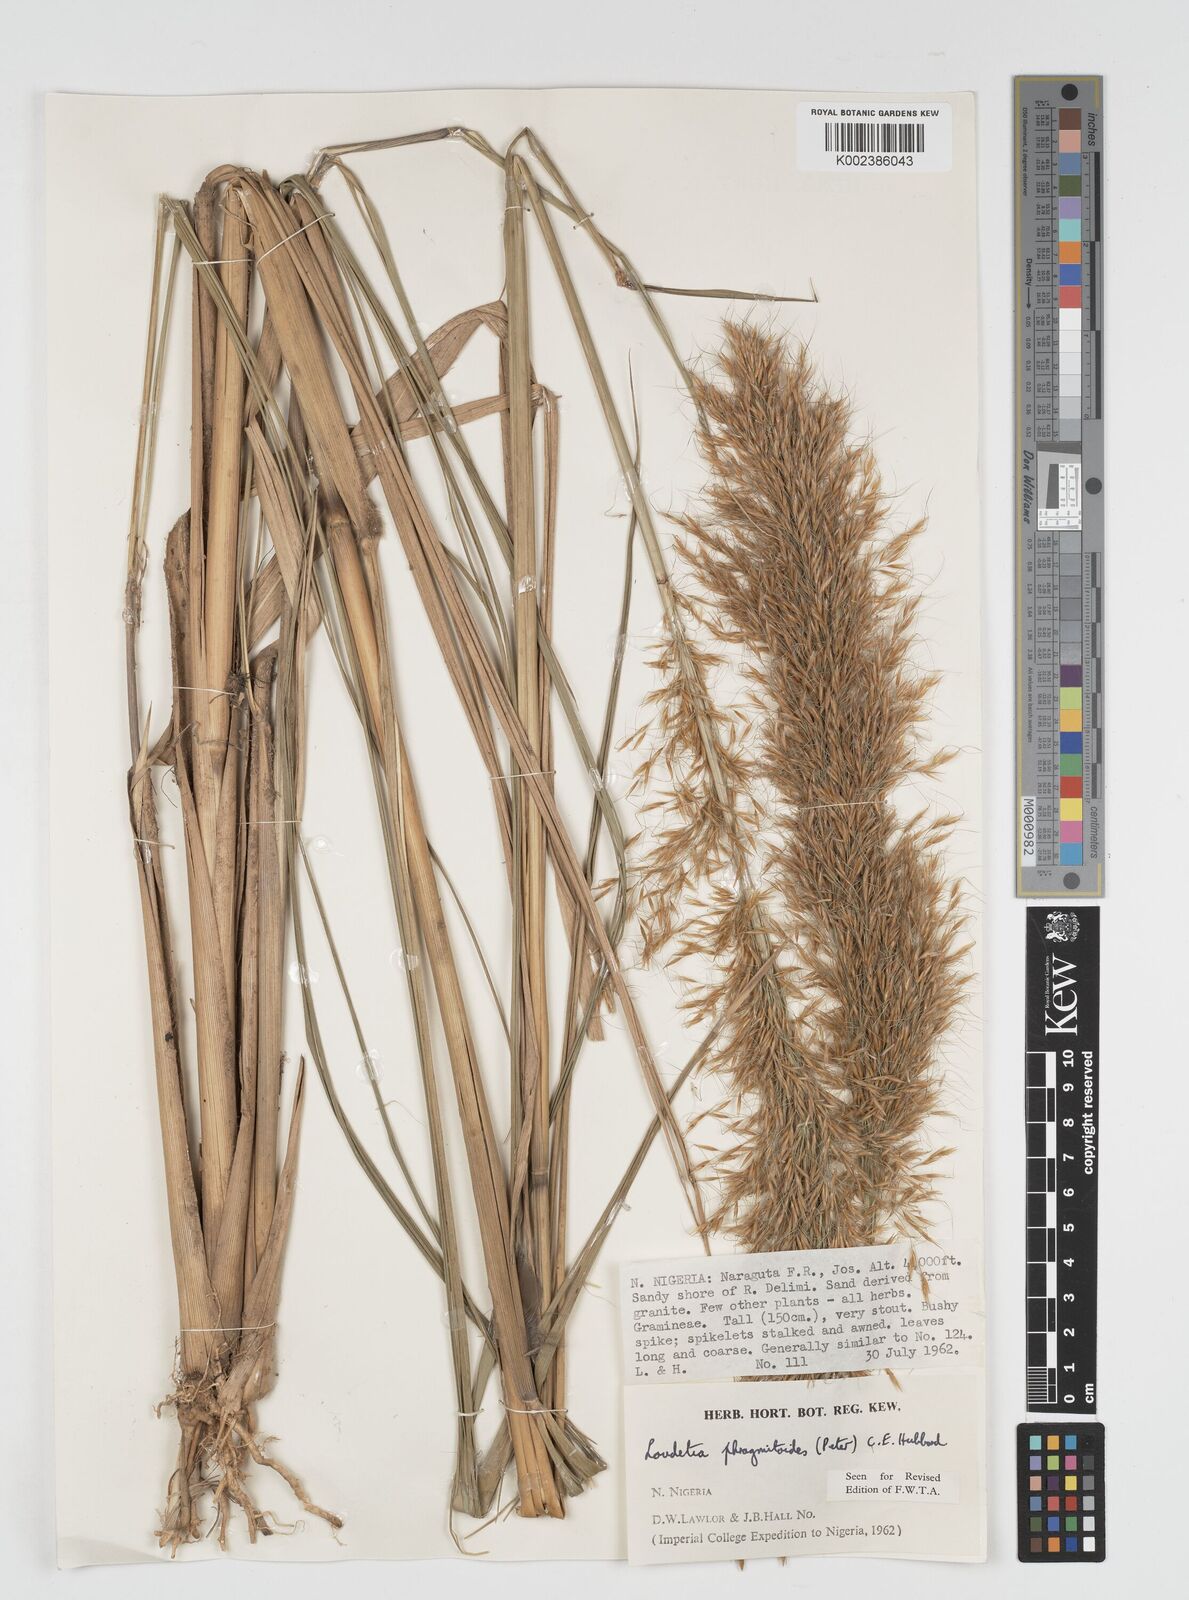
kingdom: Plantae
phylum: Tracheophyta
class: Liliopsida
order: Poales
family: Poaceae
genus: Loudetia
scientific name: Loudetia phragmitoides
